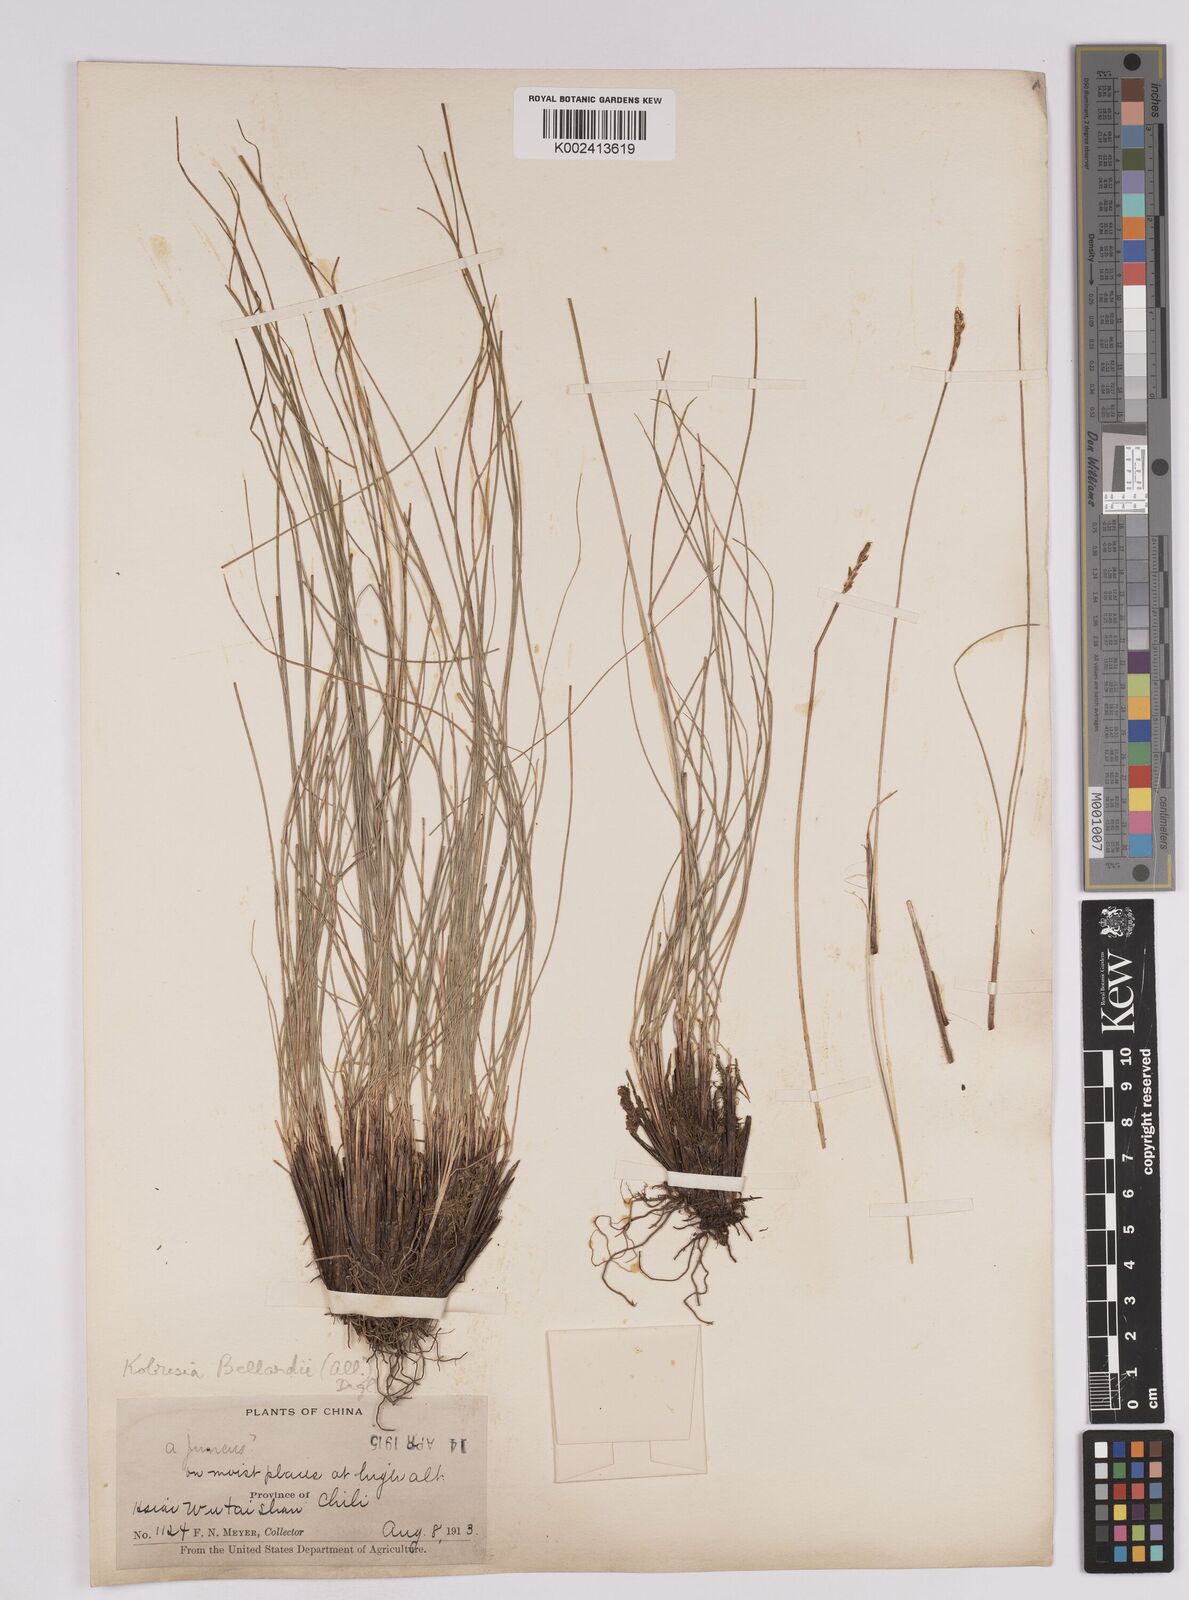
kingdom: Plantae
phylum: Tracheophyta
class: Liliopsida
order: Poales
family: Cyperaceae
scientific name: Cyperaceae
